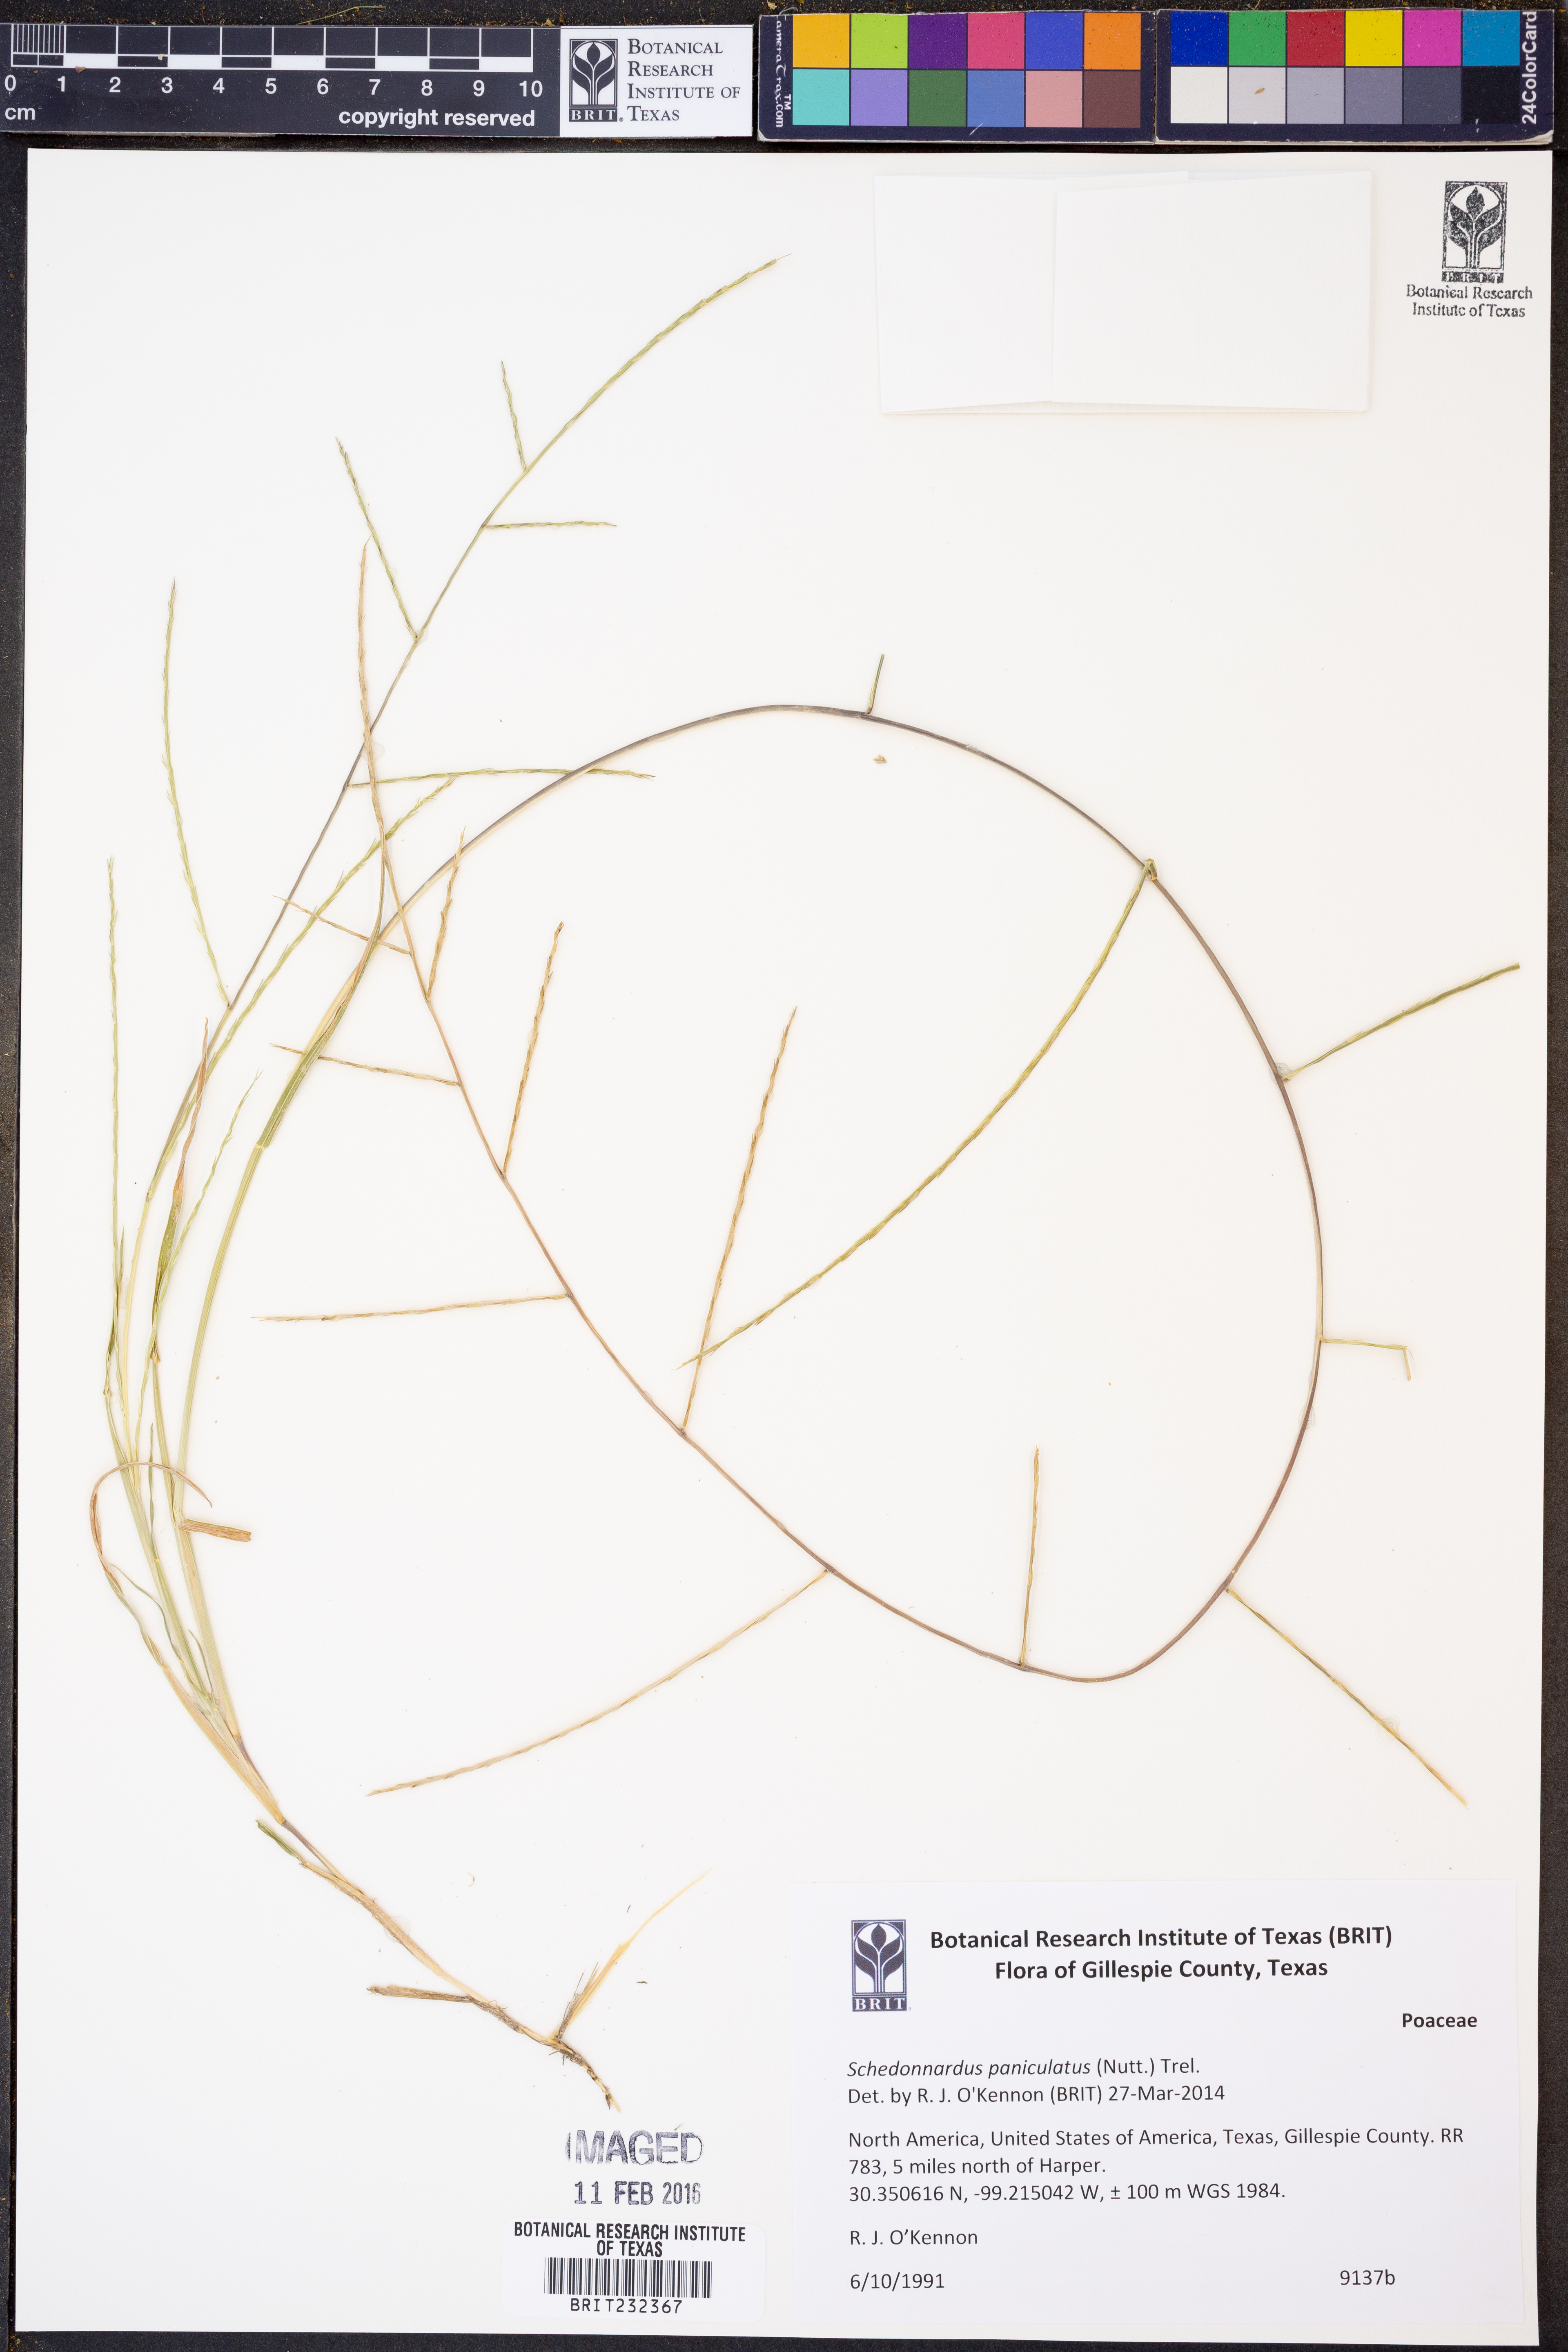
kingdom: Plantae
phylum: Tracheophyta
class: Liliopsida
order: Poales
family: Poaceae
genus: Muhlenbergia
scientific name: Muhlenbergia paniculata
